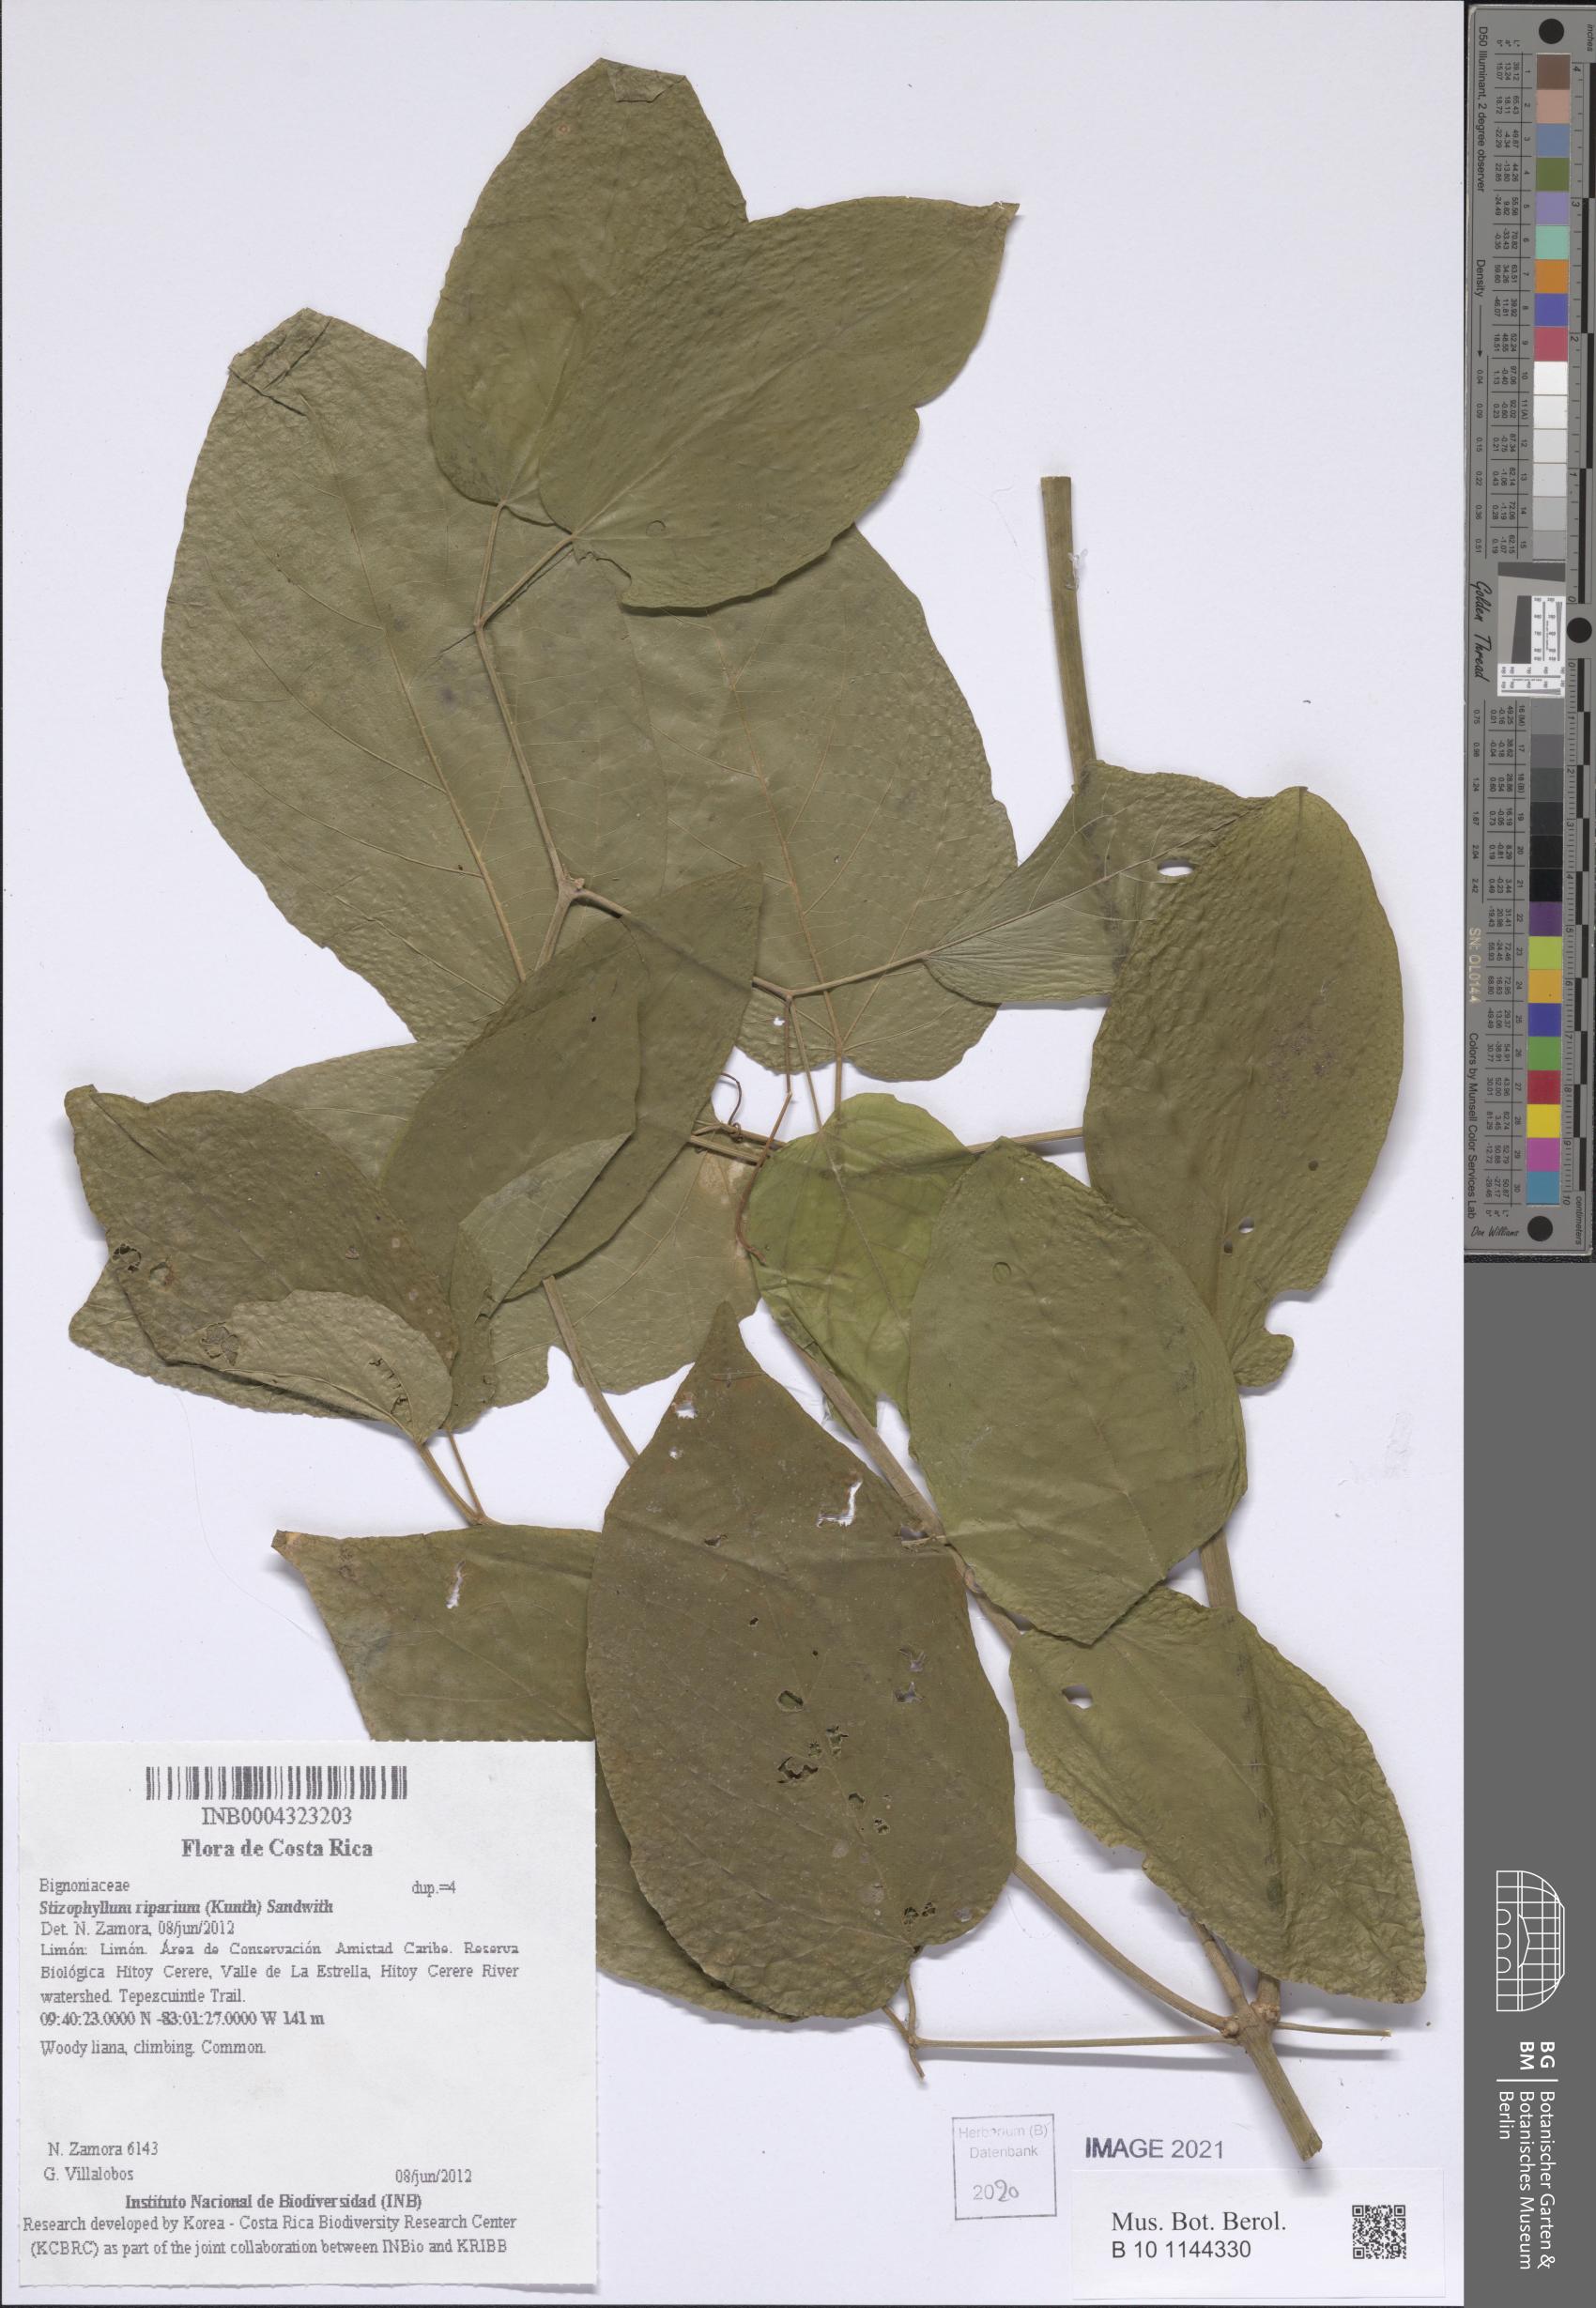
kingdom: Plantae
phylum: Tracheophyta
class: Magnoliopsida
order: Lamiales
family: Bignoniaceae
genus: Stizophyllum
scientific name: Stizophyllum riparium
